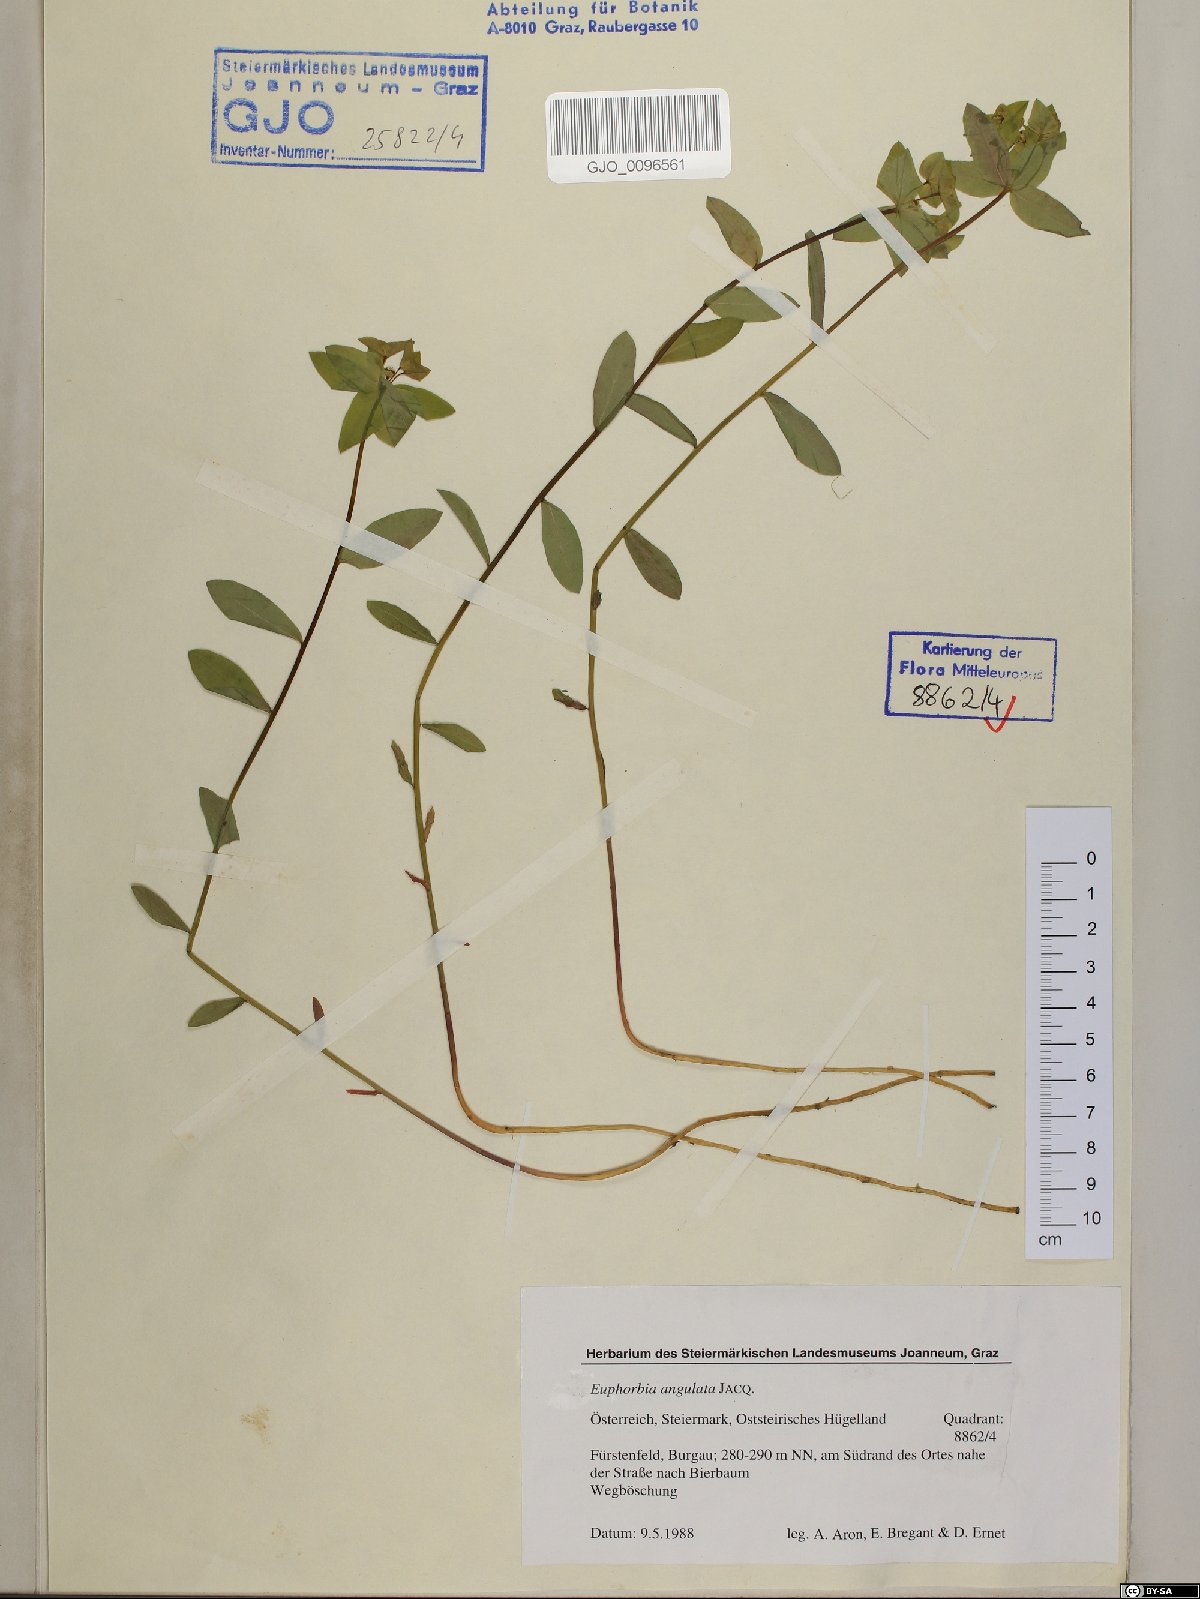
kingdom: Plantae
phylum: Tracheophyta
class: Magnoliopsida
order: Malpighiales
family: Euphorbiaceae
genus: Euphorbia
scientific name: Euphorbia angulata
